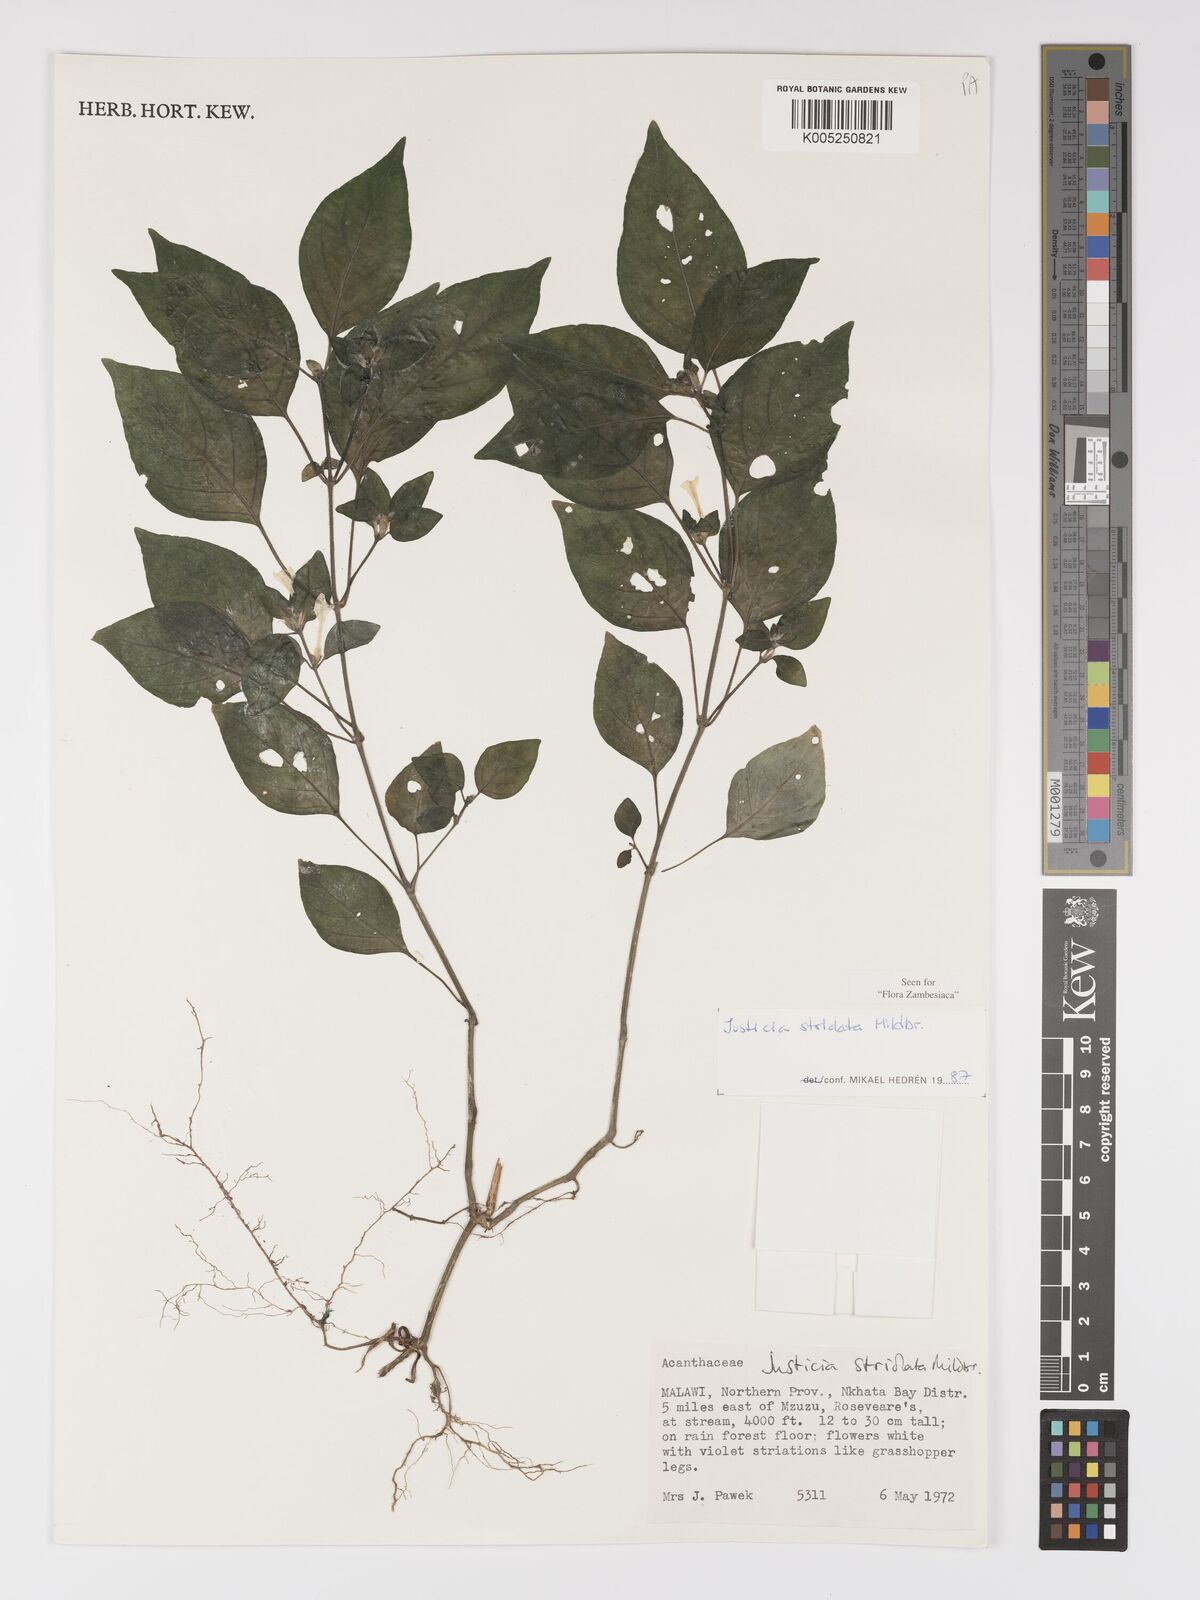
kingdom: Plantae
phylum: Tracheophyta
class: Magnoliopsida
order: Lamiales
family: Acanthaceae
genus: Justicia
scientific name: Justicia striolata
